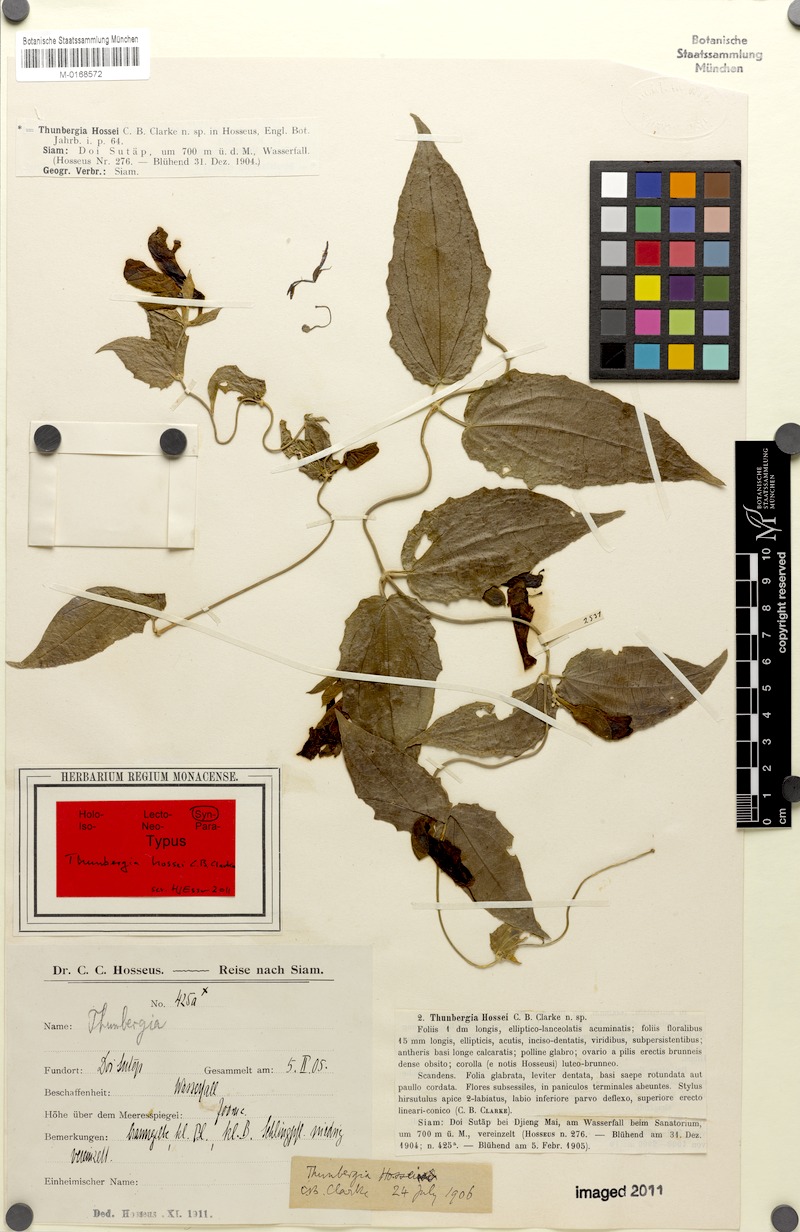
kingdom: Plantae
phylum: Tracheophyta
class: Magnoliopsida
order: Lamiales
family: Acanthaceae
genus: Thunbergia
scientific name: Thunbergia hossei
